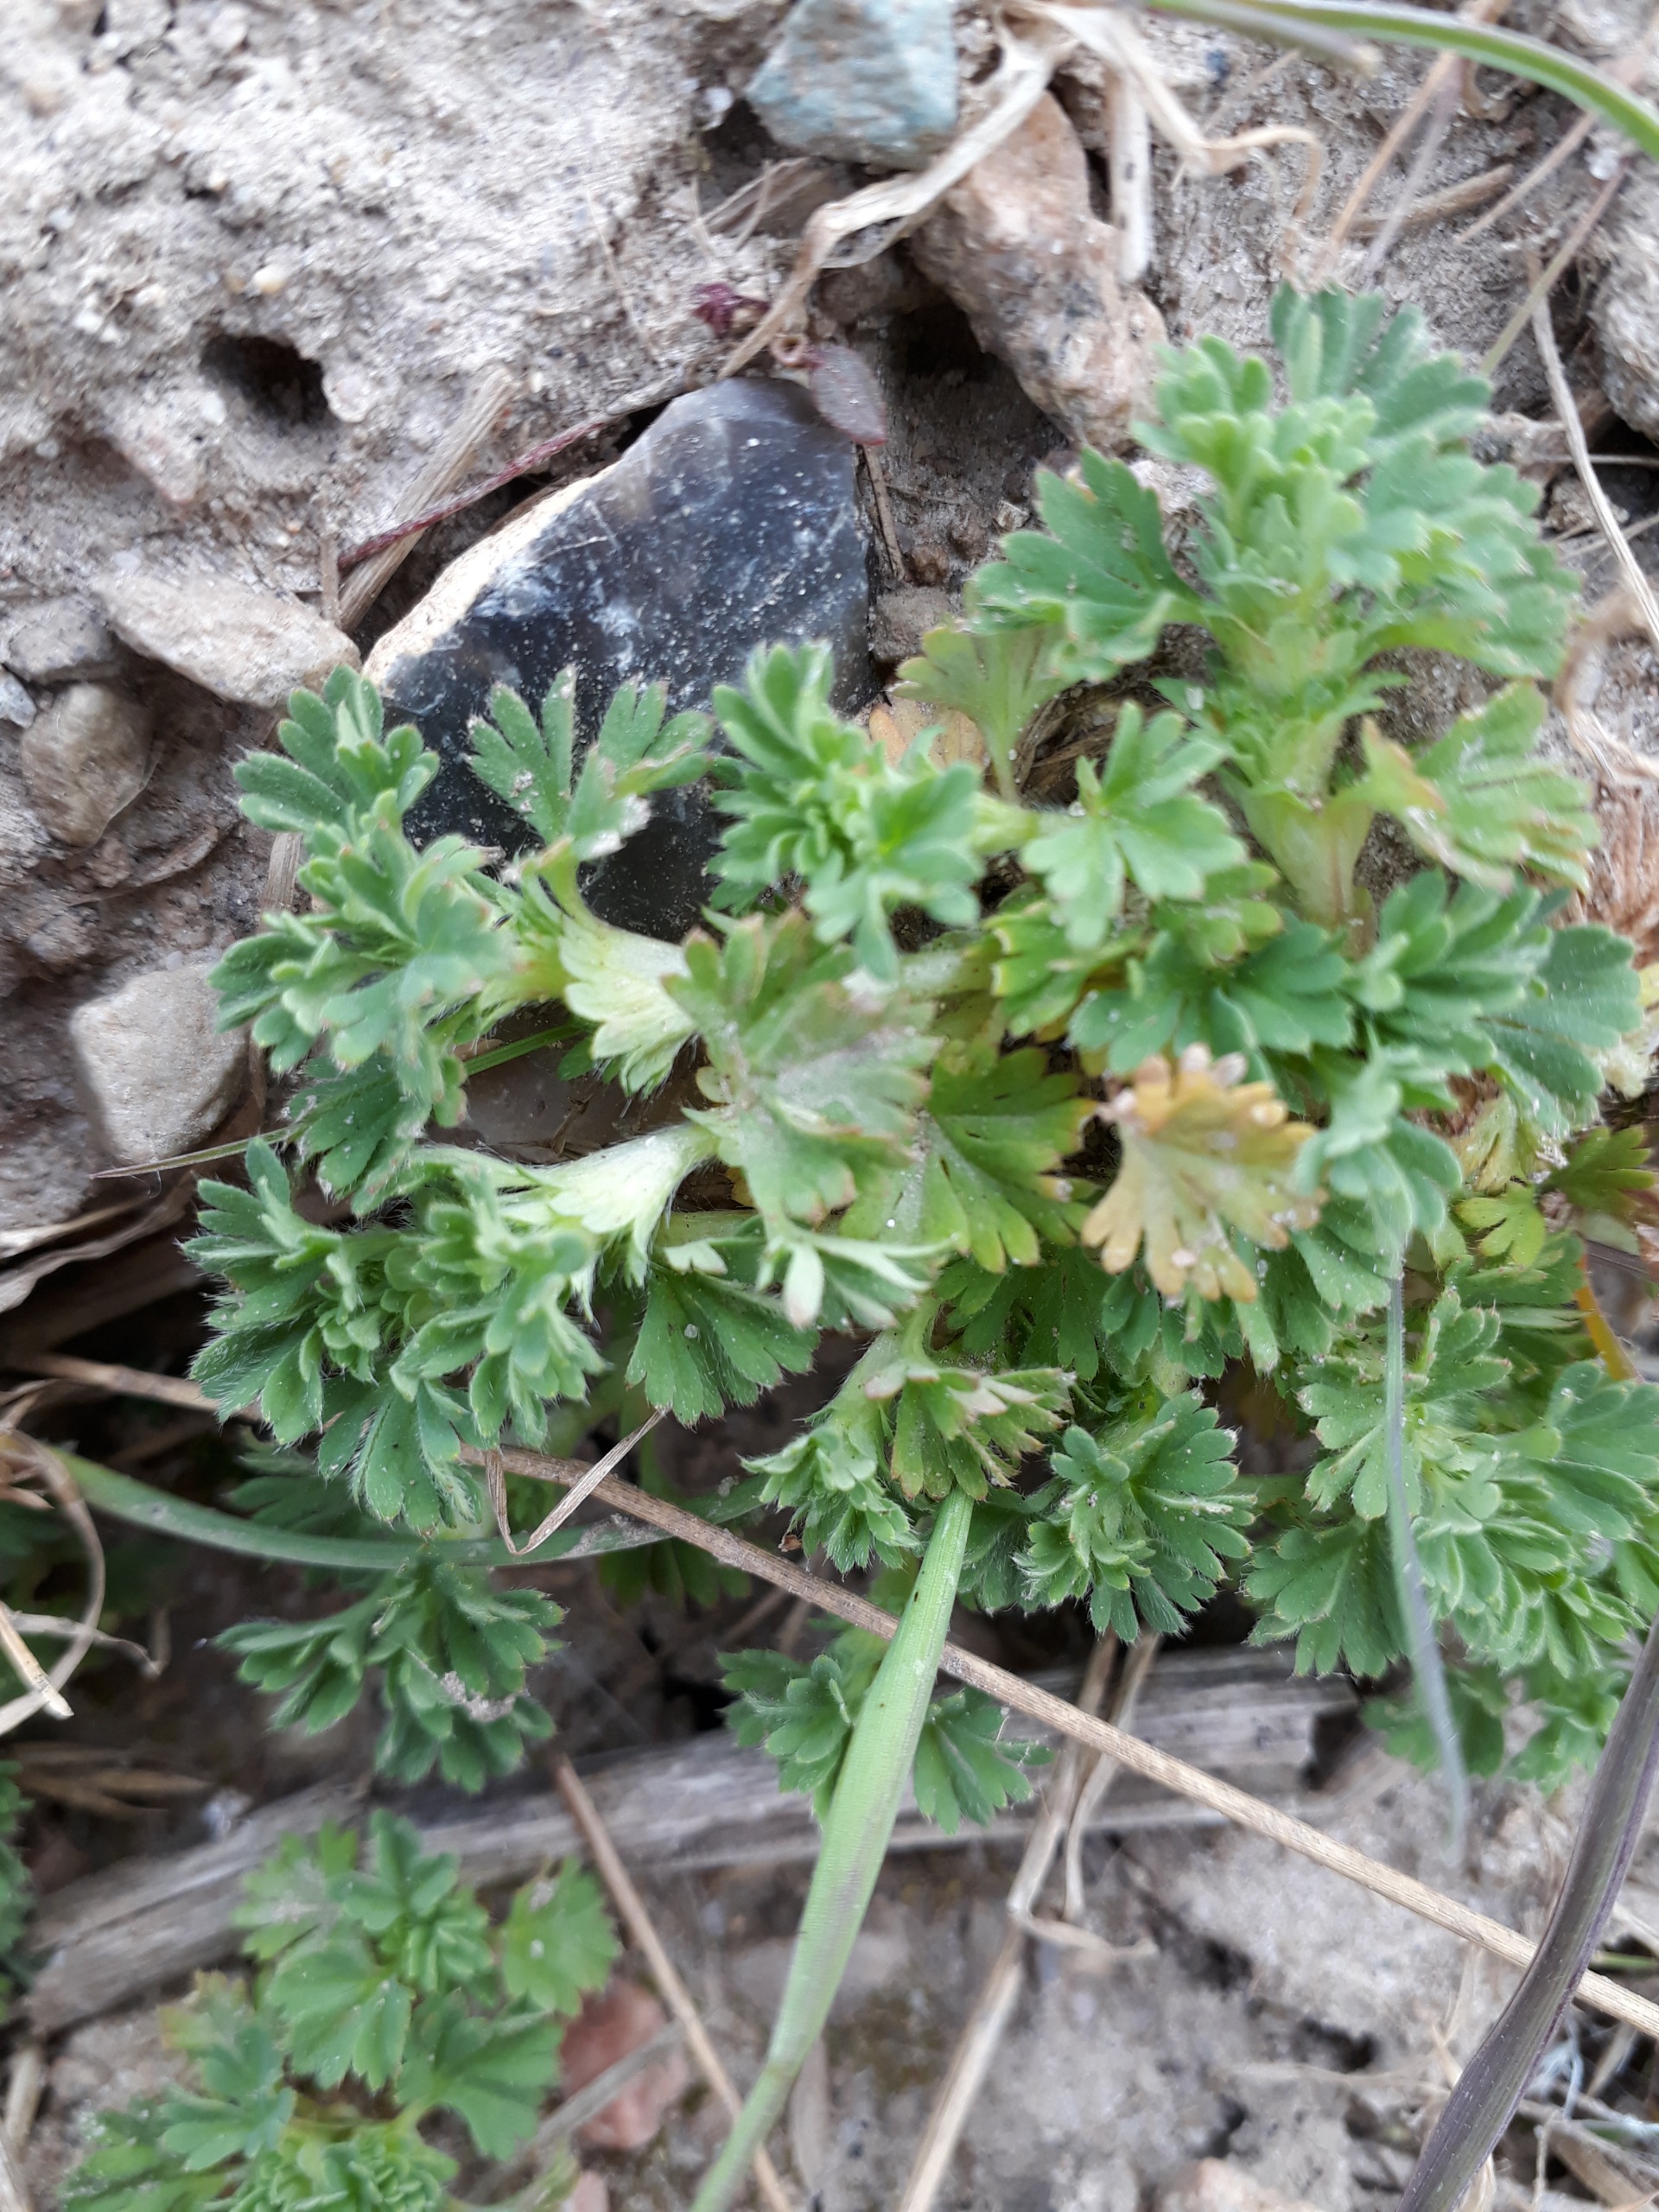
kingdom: Plantae
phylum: Tracheophyta
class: Magnoliopsida
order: Rosales
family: Rosaceae
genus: Aphanes
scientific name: Aphanes arvensis
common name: Dværgløvefod
